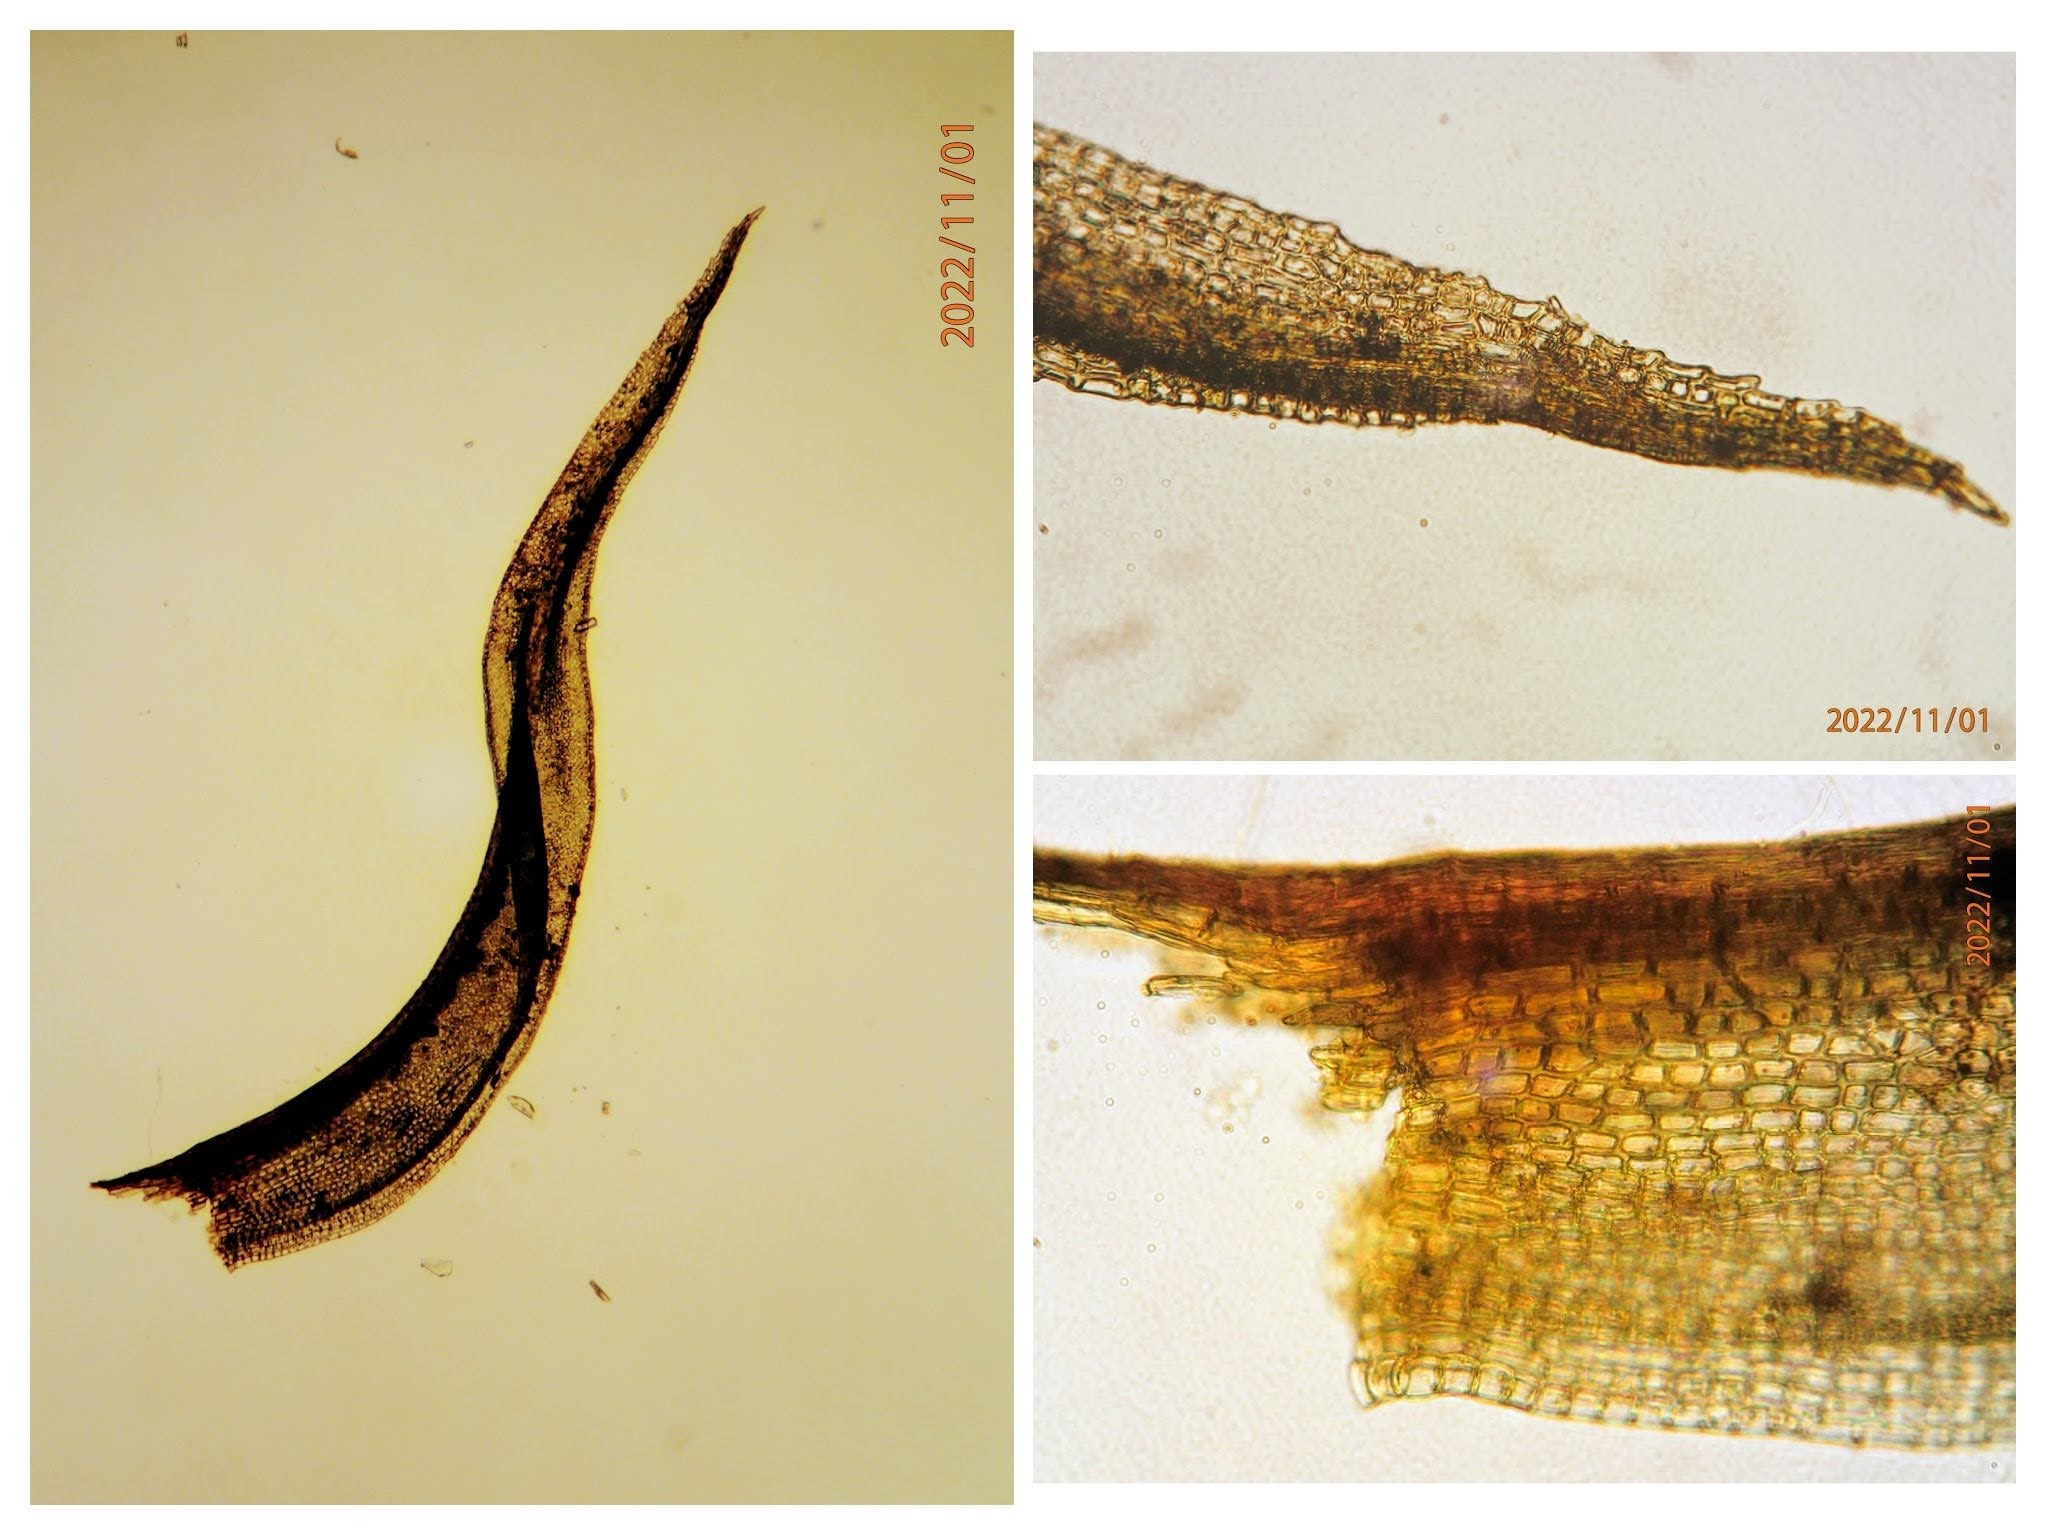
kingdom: Plantae
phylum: Bryophyta
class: Bryopsida
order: Dicranales
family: Ditrichaceae
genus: Ceratodon
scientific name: Ceratodon purpureus
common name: Rød horntand
